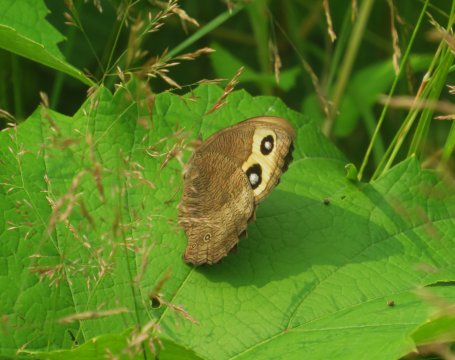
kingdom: Animalia
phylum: Arthropoda
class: Insecta
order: Lepidoptera
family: Nymphalidae
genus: Cercyonis
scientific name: Cercyonis pegala
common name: Common Wood-Nymph
